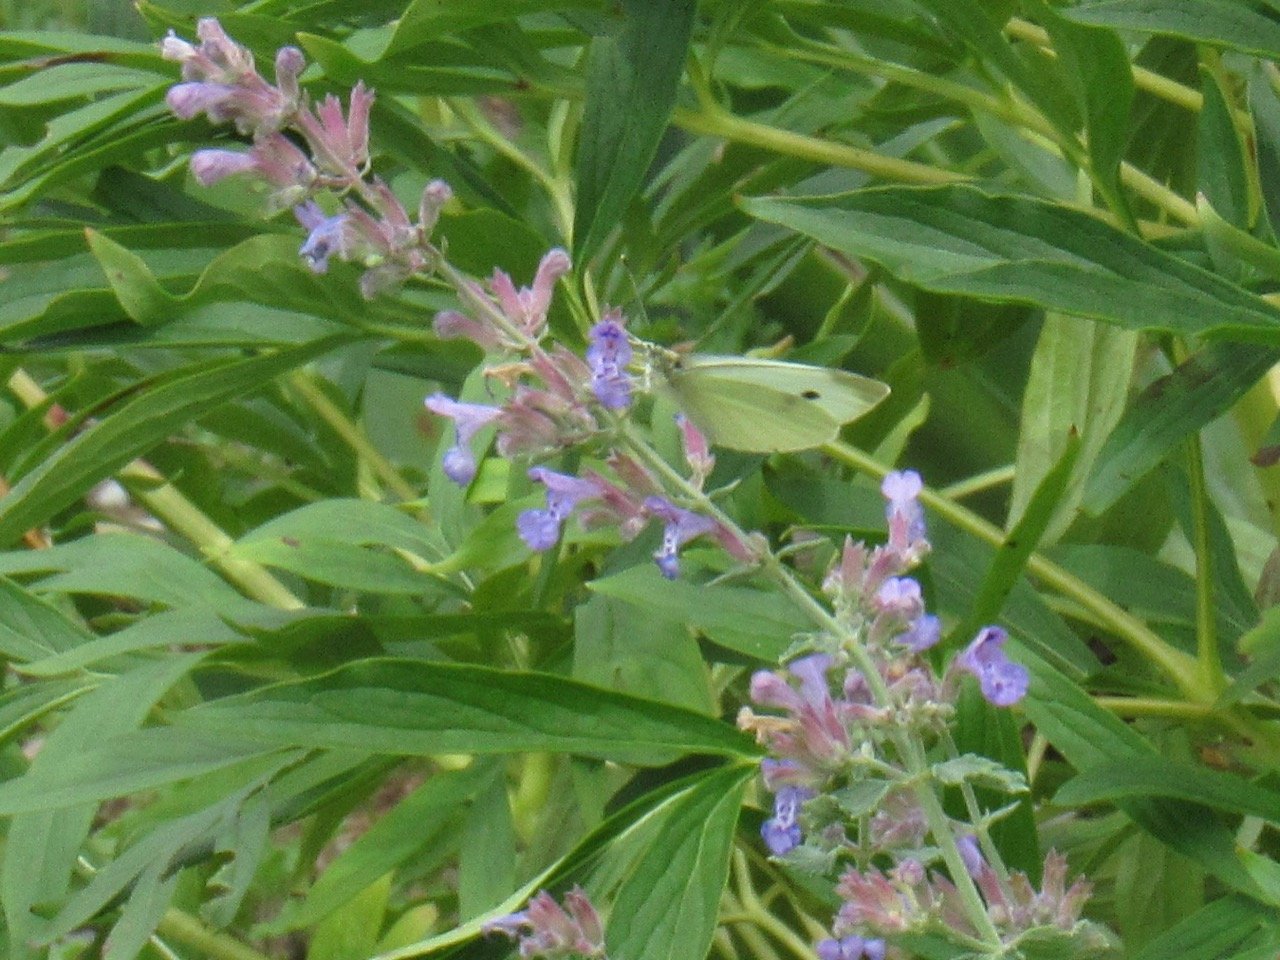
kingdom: Animalia
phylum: Arthropoda
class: Insecta
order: Lepidoptera
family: Pieridae
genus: Pieris
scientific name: Pieris rapae
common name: Cabbage White
